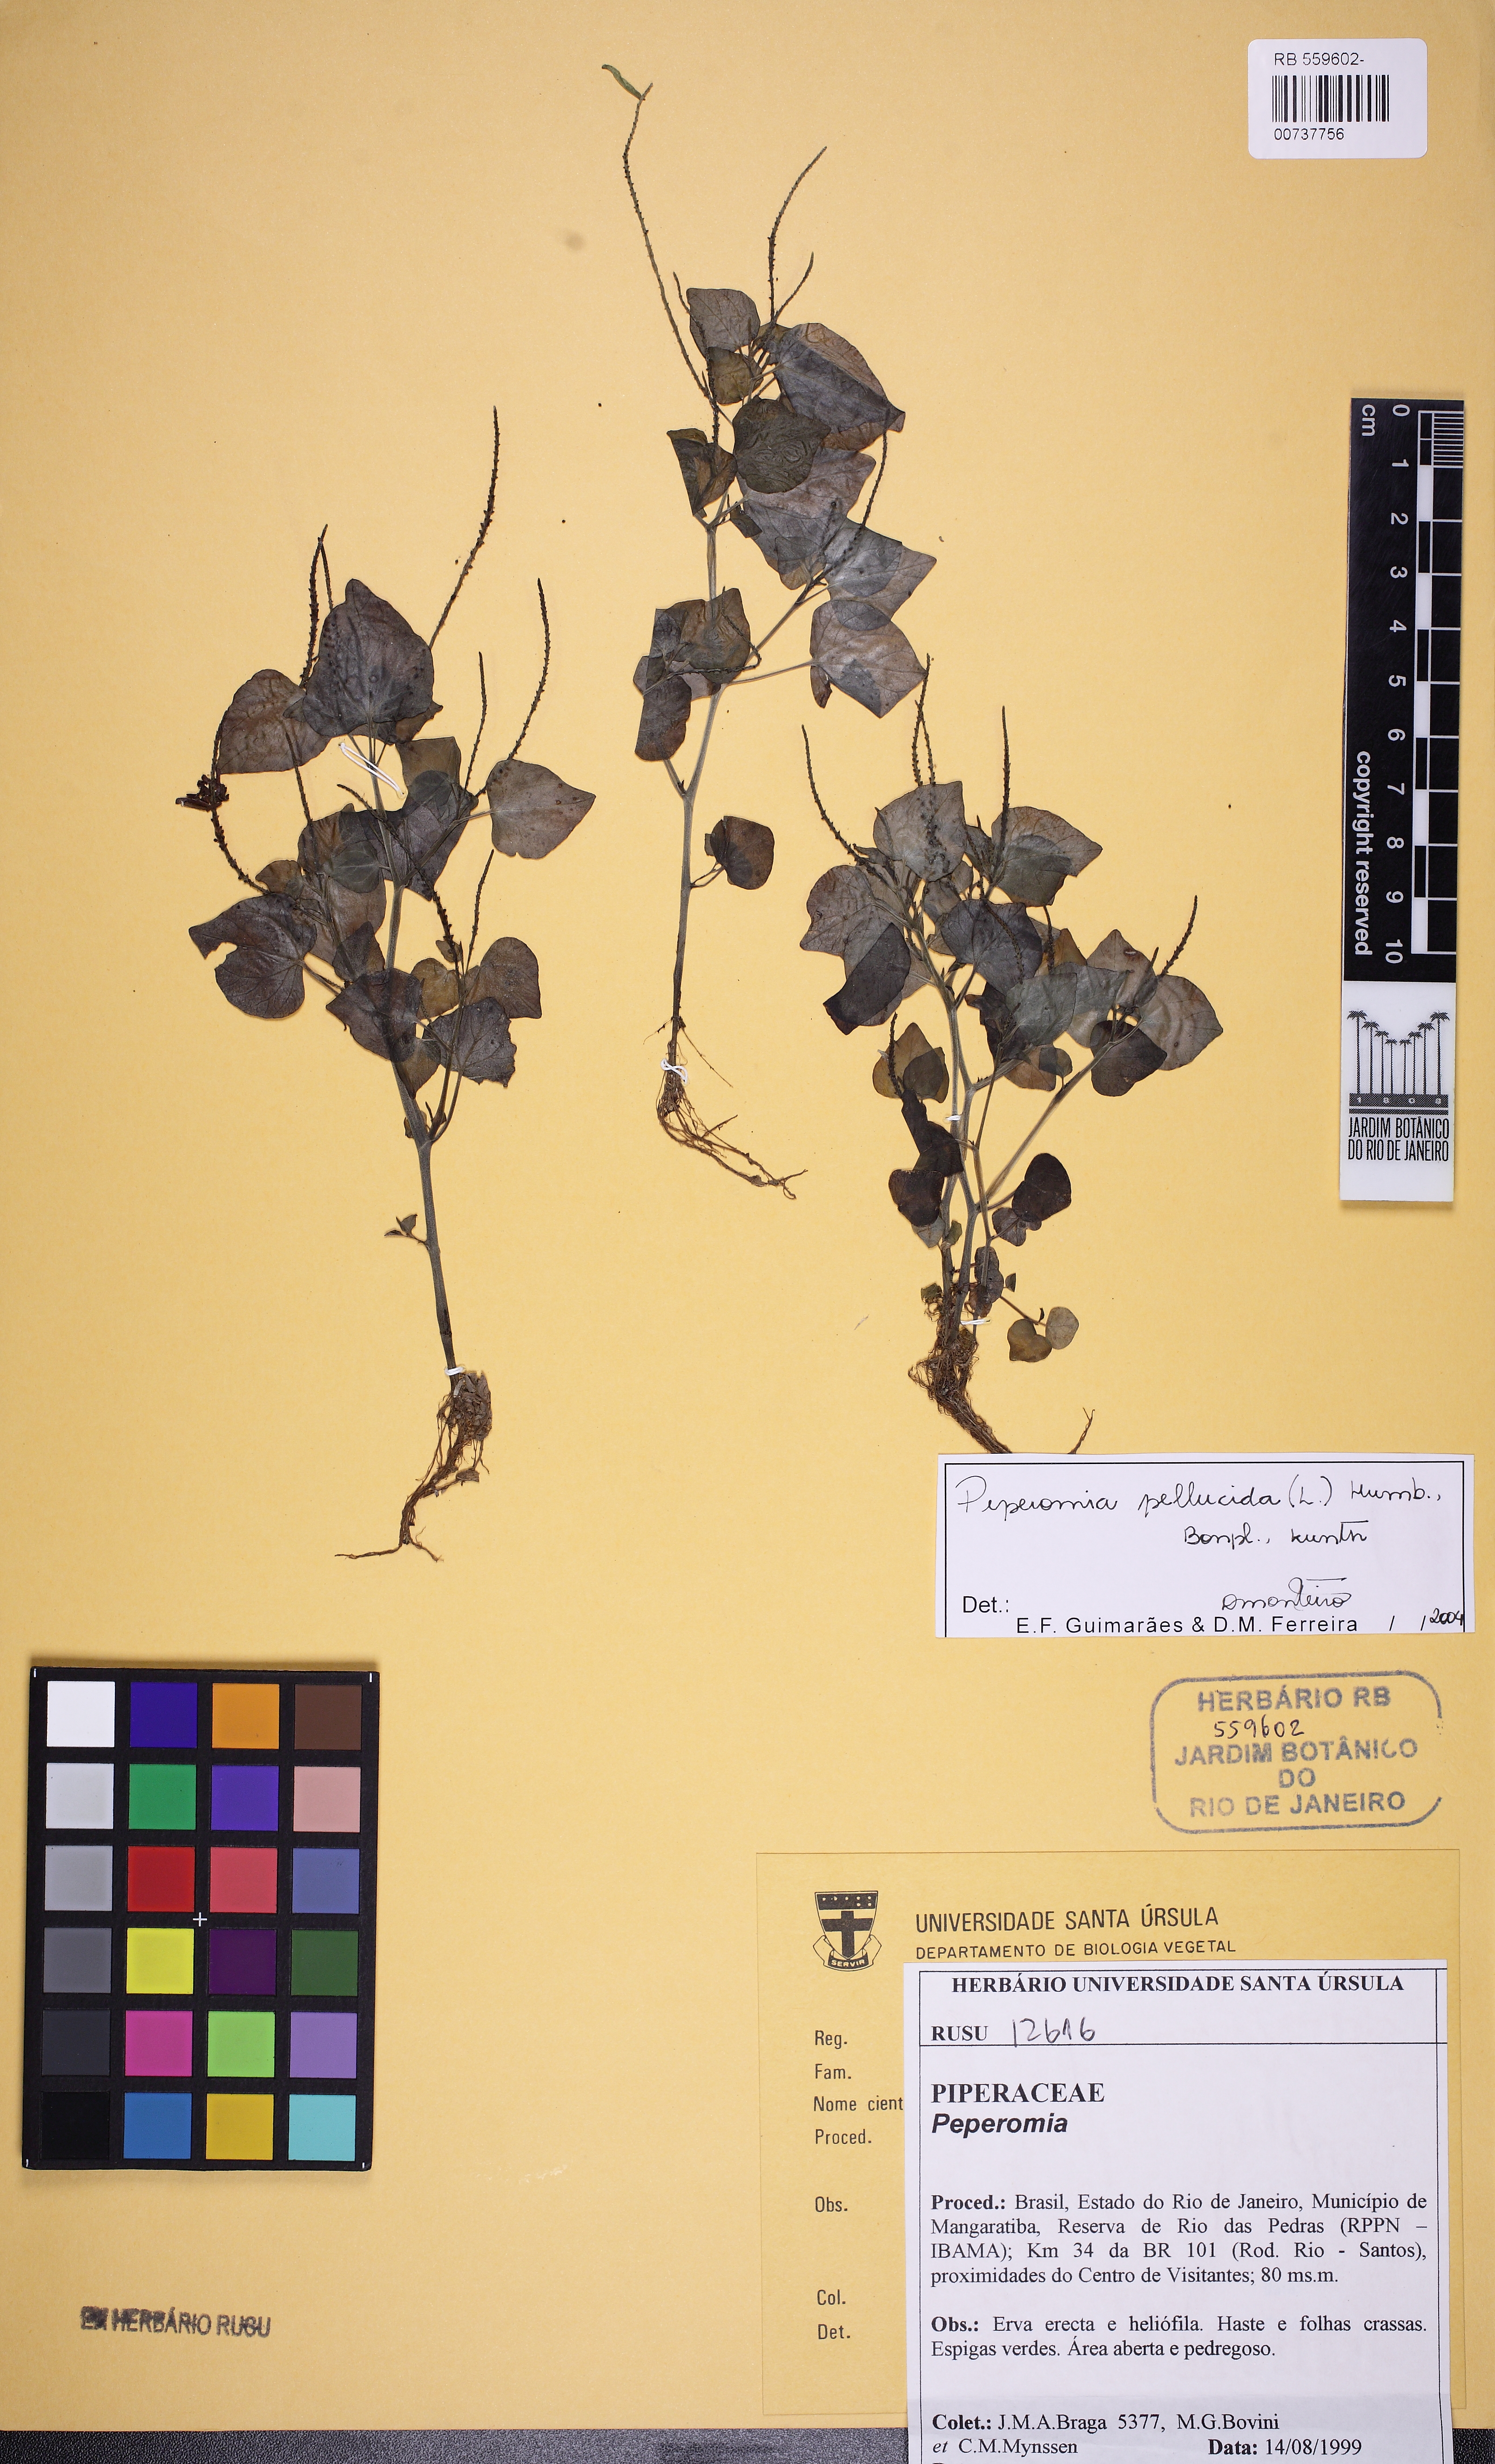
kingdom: Plantae
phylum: Tracheophyta
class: Magnoliopsida
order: Piperales
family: Piperaceae
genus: Peperomia
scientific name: Peperomia
